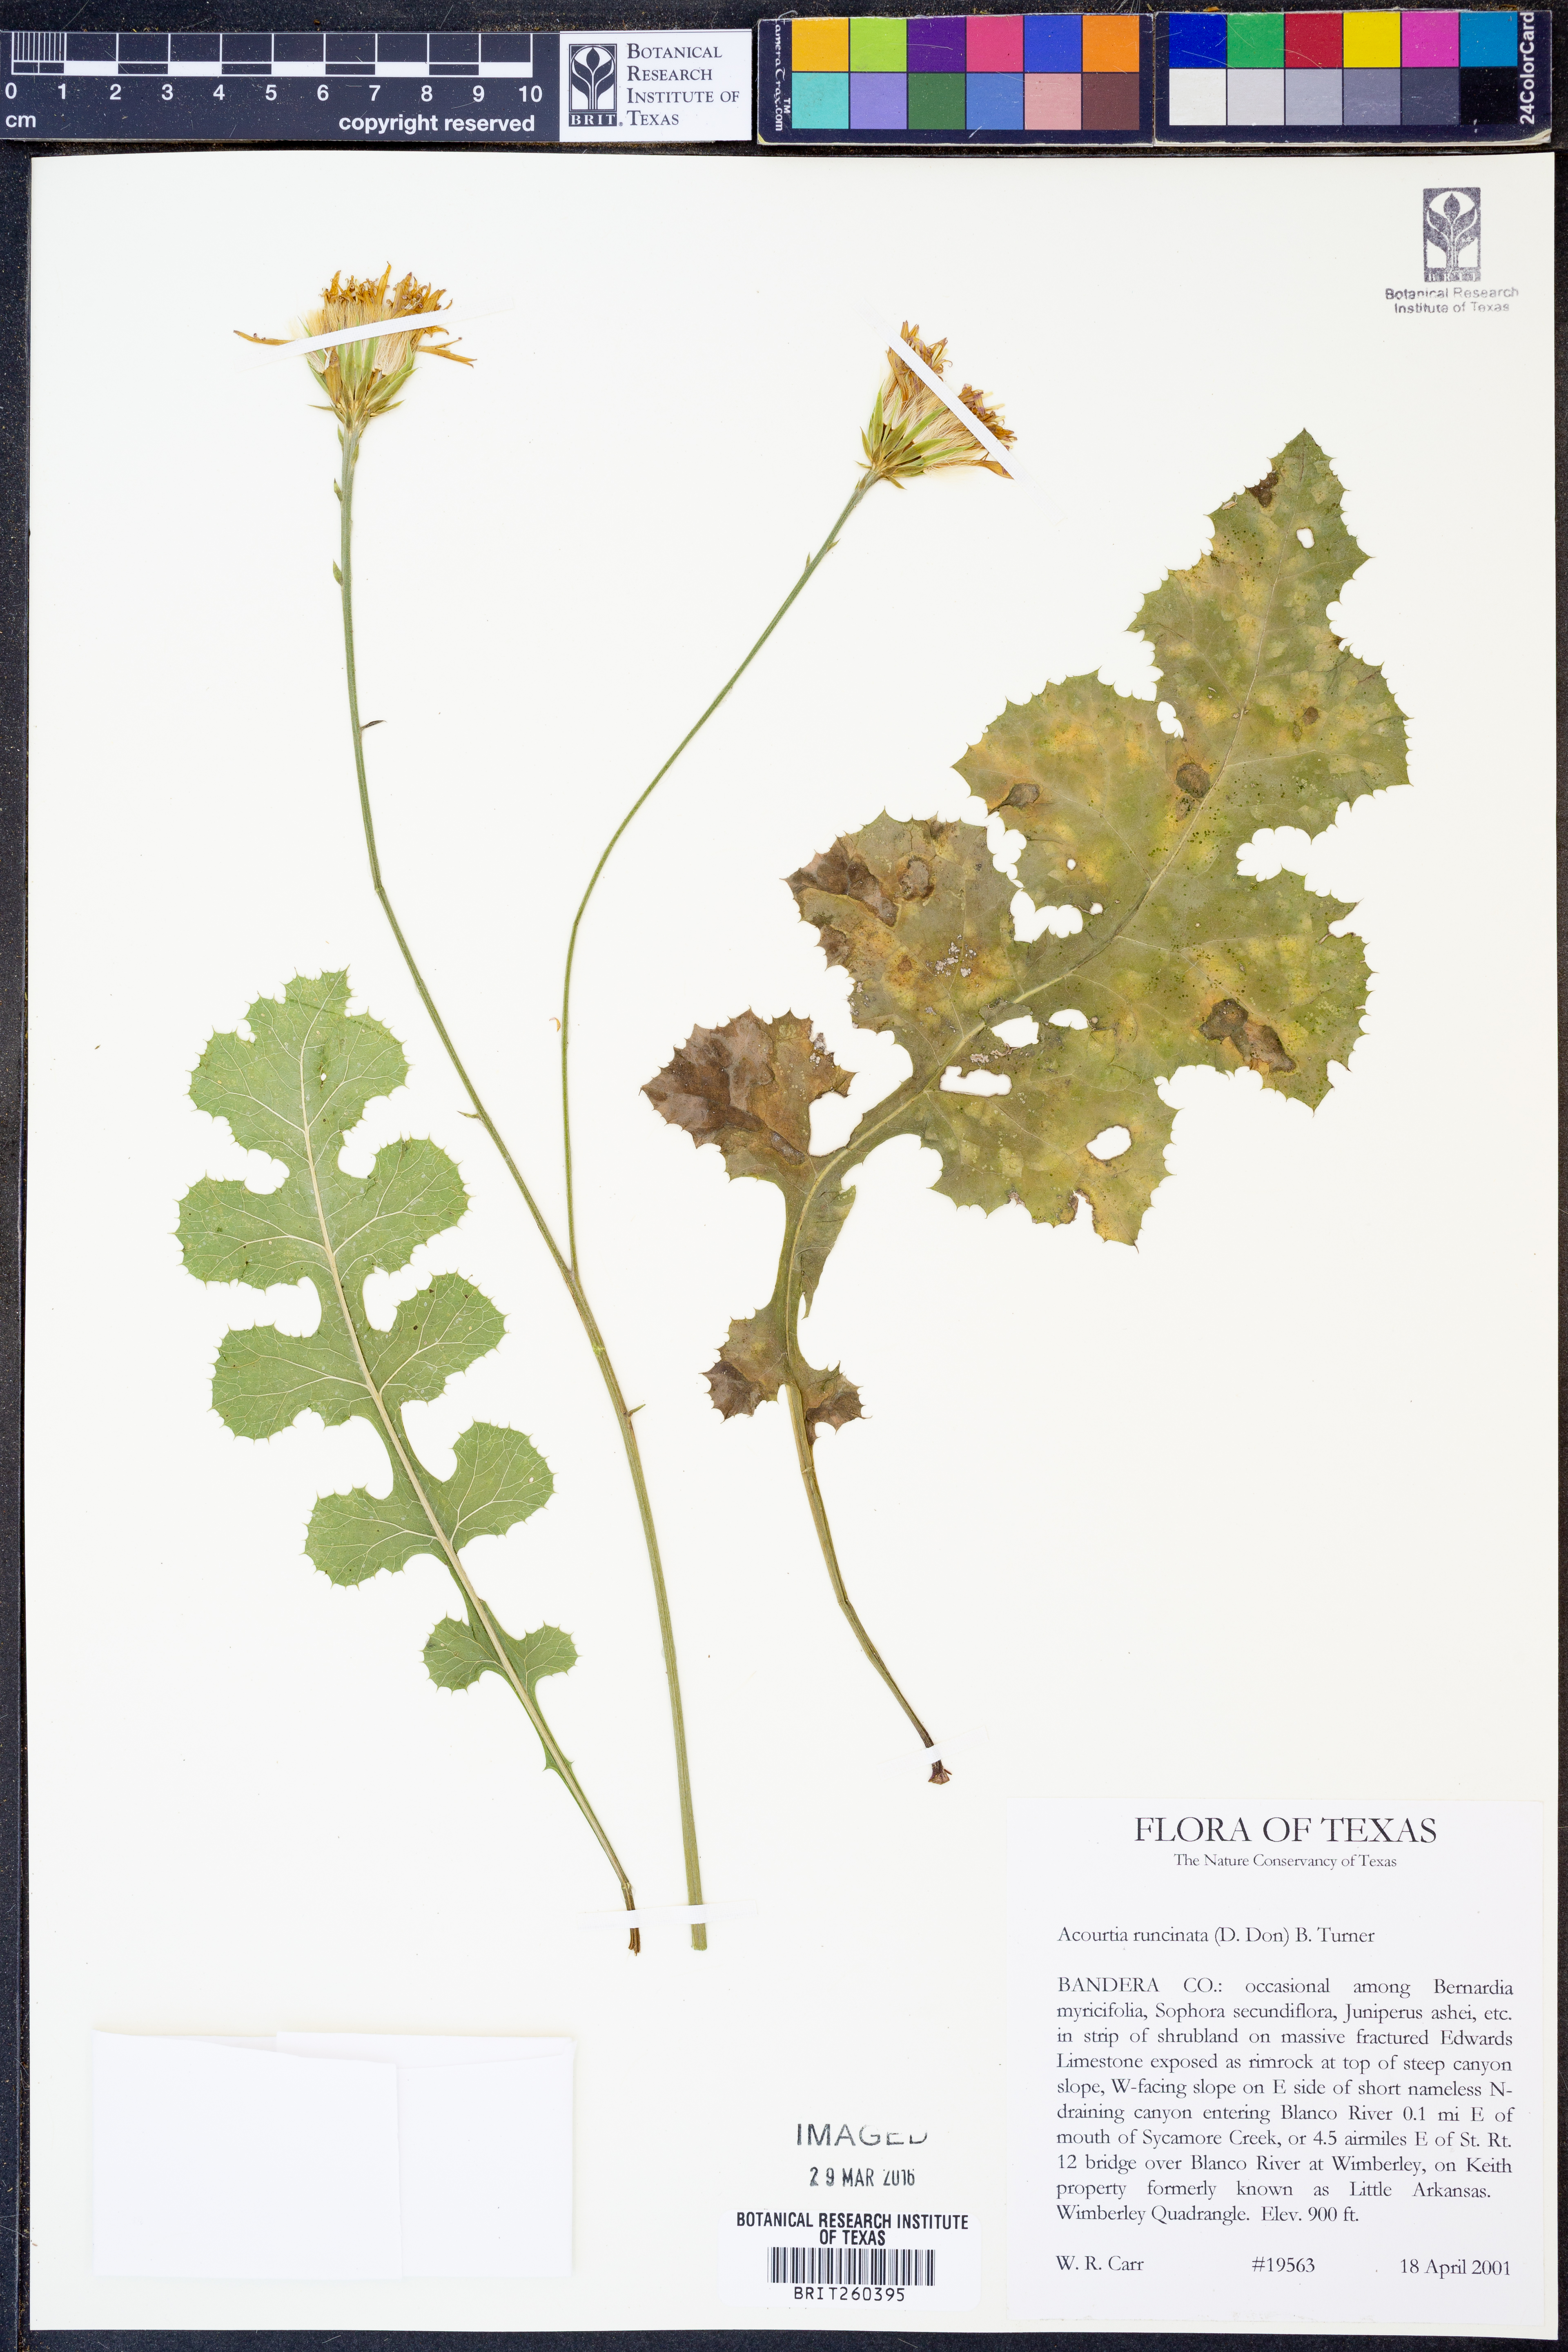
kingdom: Plantae
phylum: Tracheophyta
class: Magnoliopsida
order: Asterales
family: Asteraceae
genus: Acourtia
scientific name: Acourtia runcinata
